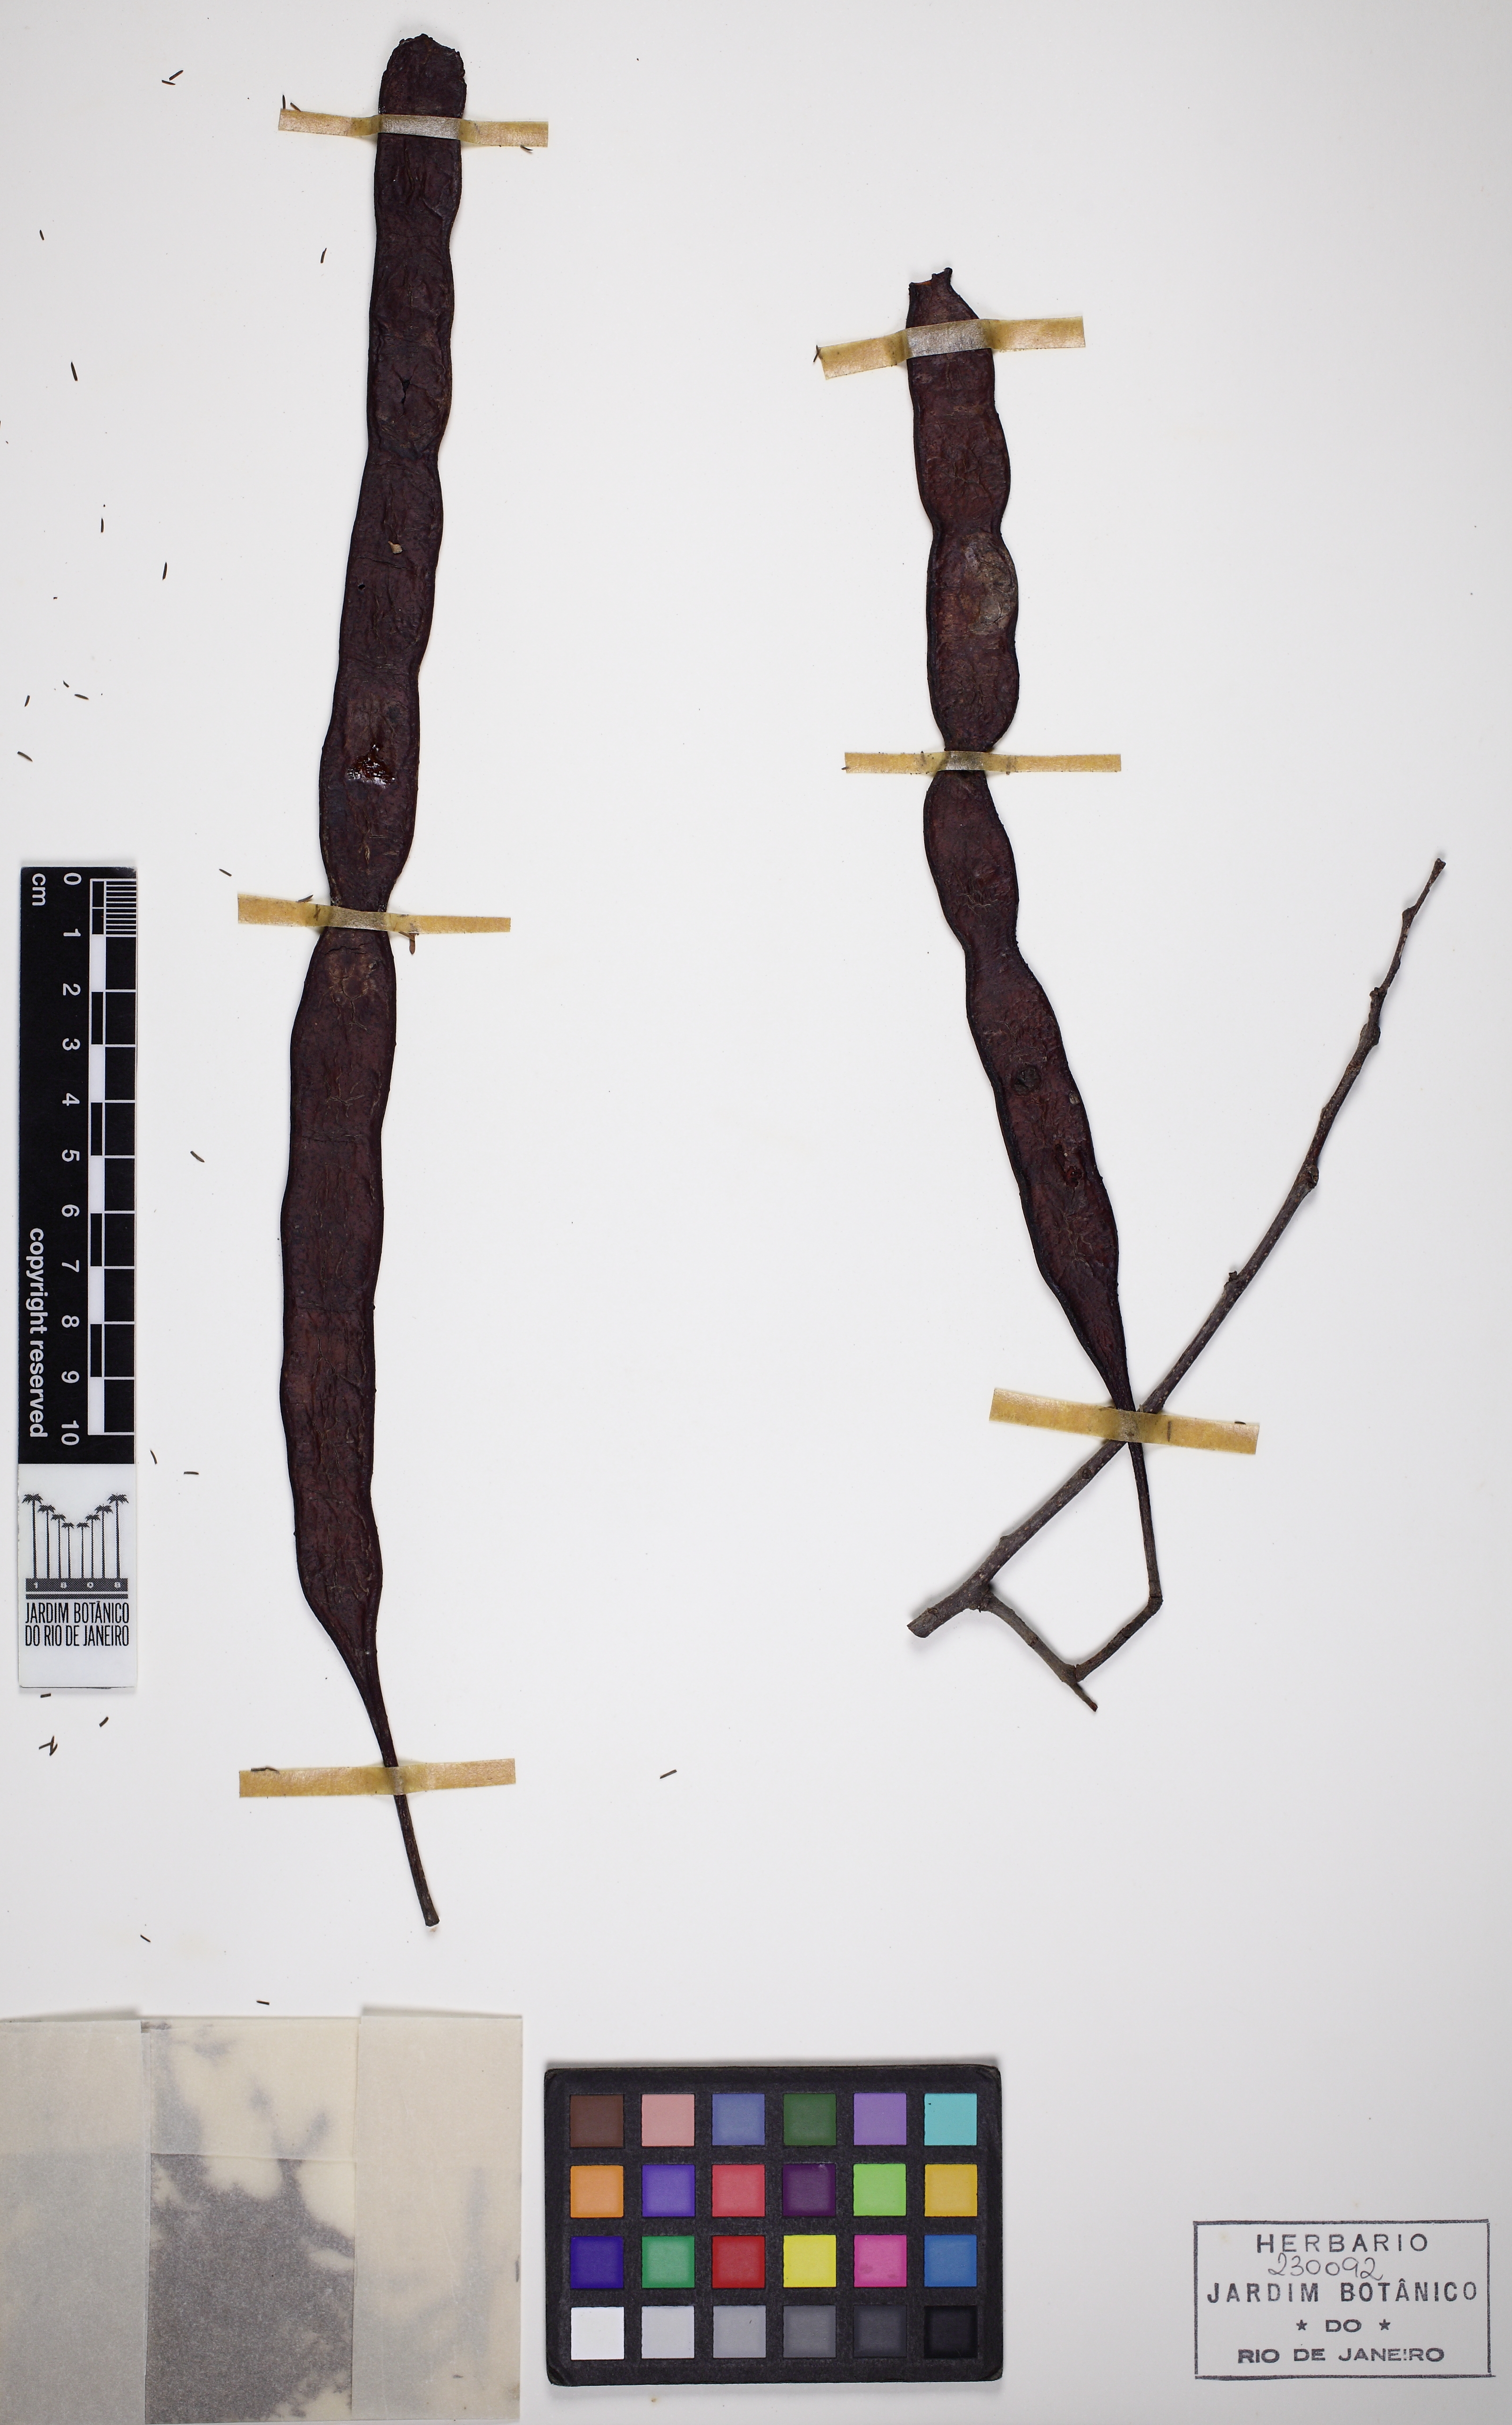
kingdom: Plantae
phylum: Tracheophyta
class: Magnoliopsida
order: Fabales
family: Fabaceae
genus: Anadenanthera
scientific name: Anadenanthera colubrina
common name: Curupay
